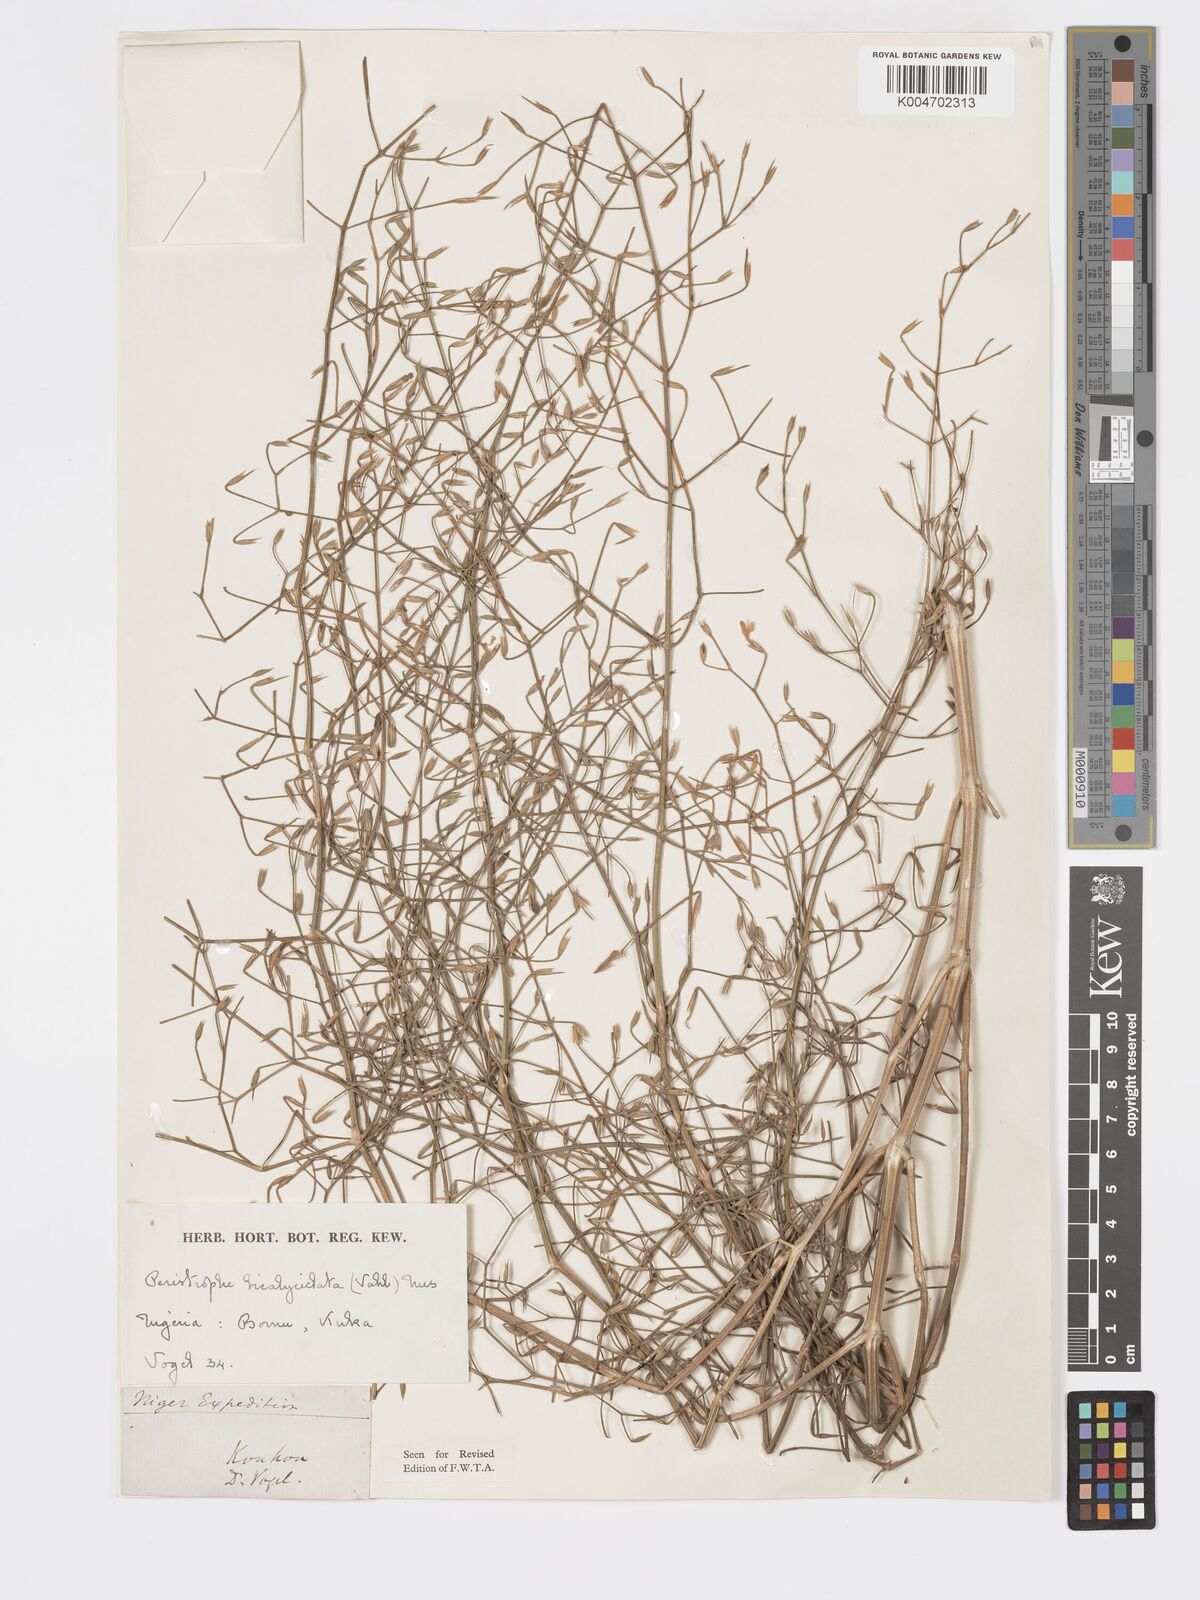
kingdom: Plantae
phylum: Tracheophyta
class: Magnoliopsida
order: Lamiales
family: Acanthaceae
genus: Dicliptera
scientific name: Dicliptera paniculata
